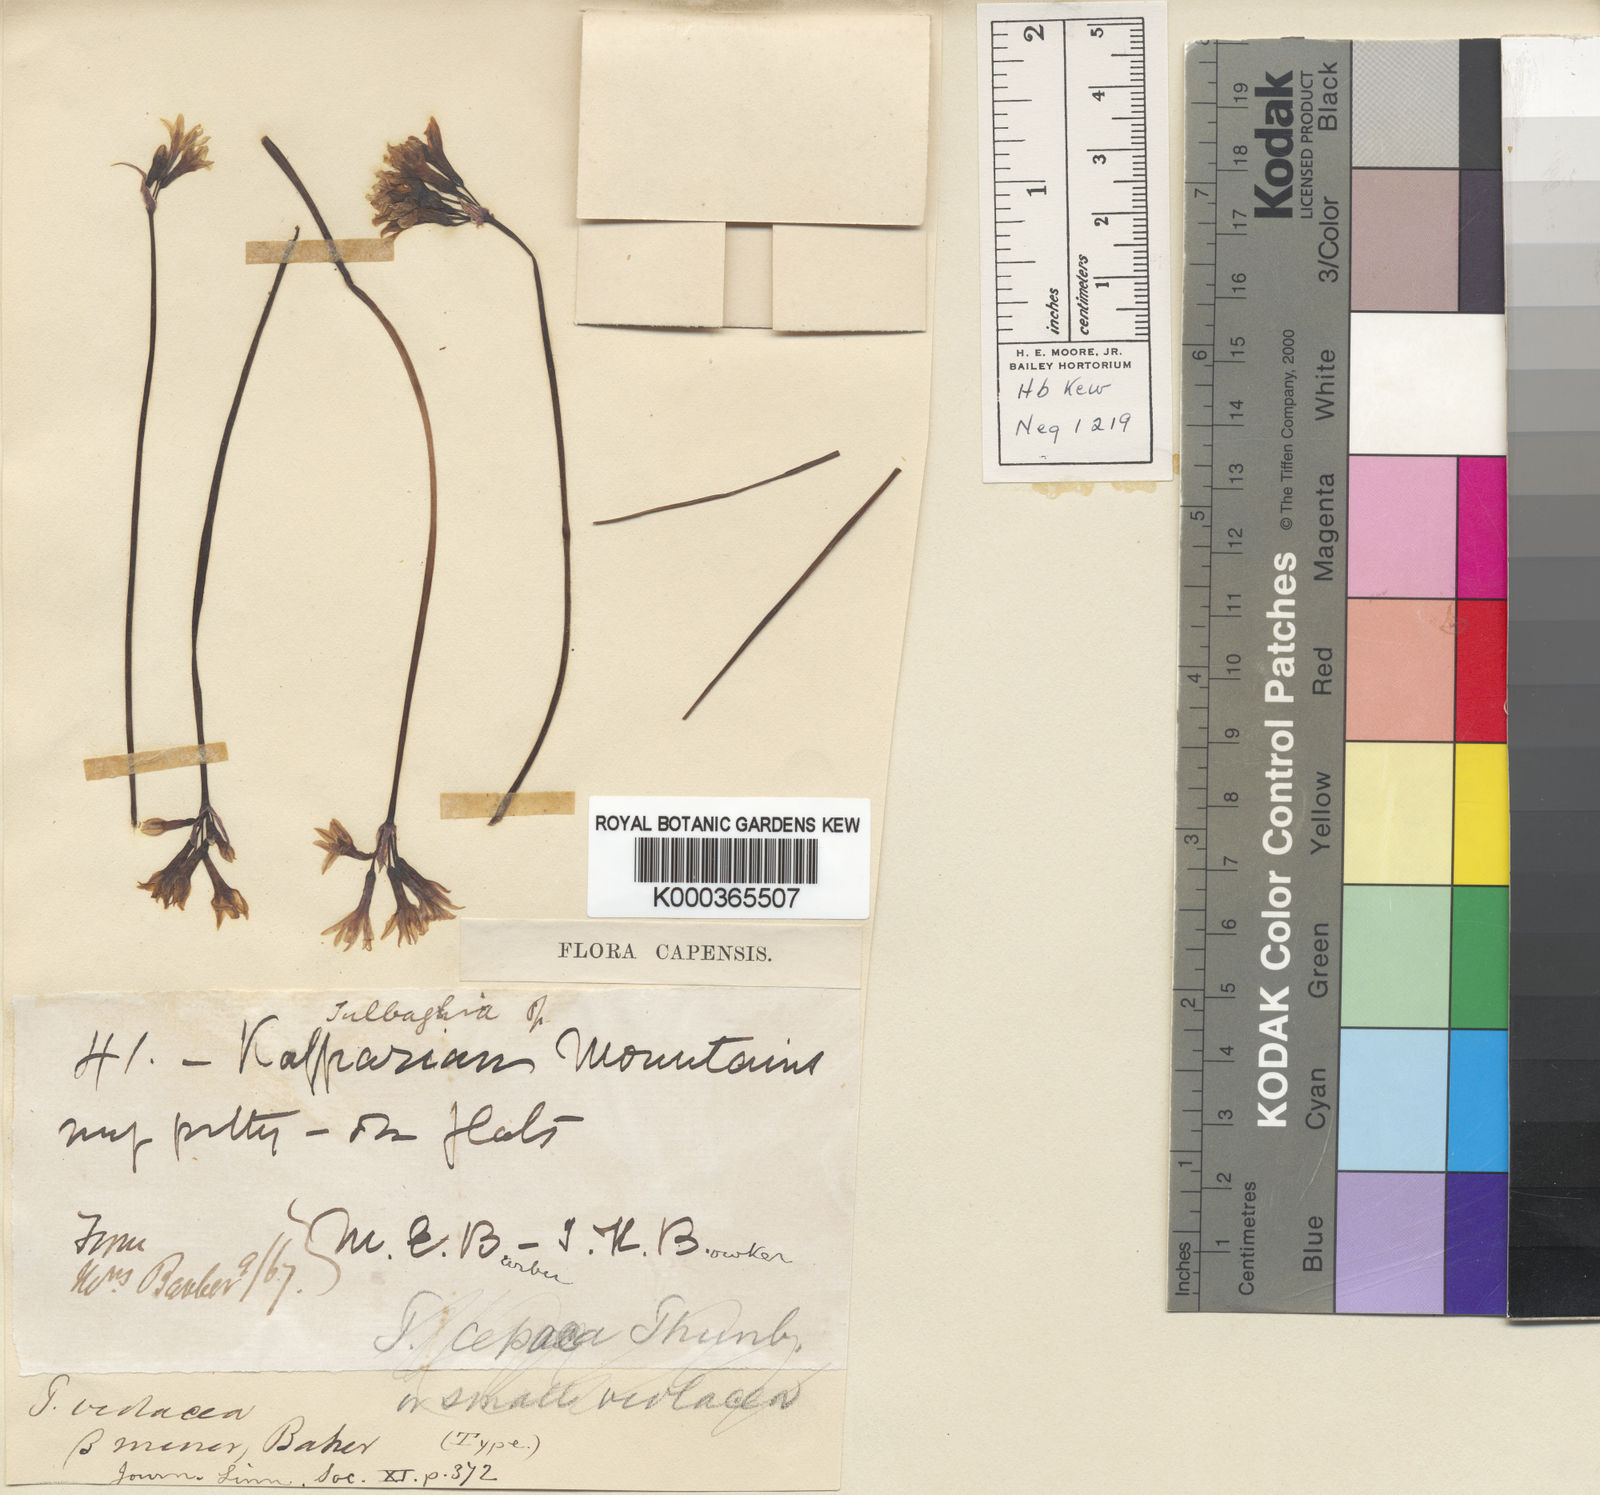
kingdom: Plantae
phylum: Tracheophyta
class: Liliopsida
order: Asparagales
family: Amaryllidaceae
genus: Tulbaghia
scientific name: Tulbaghia violacea
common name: Society garlic
